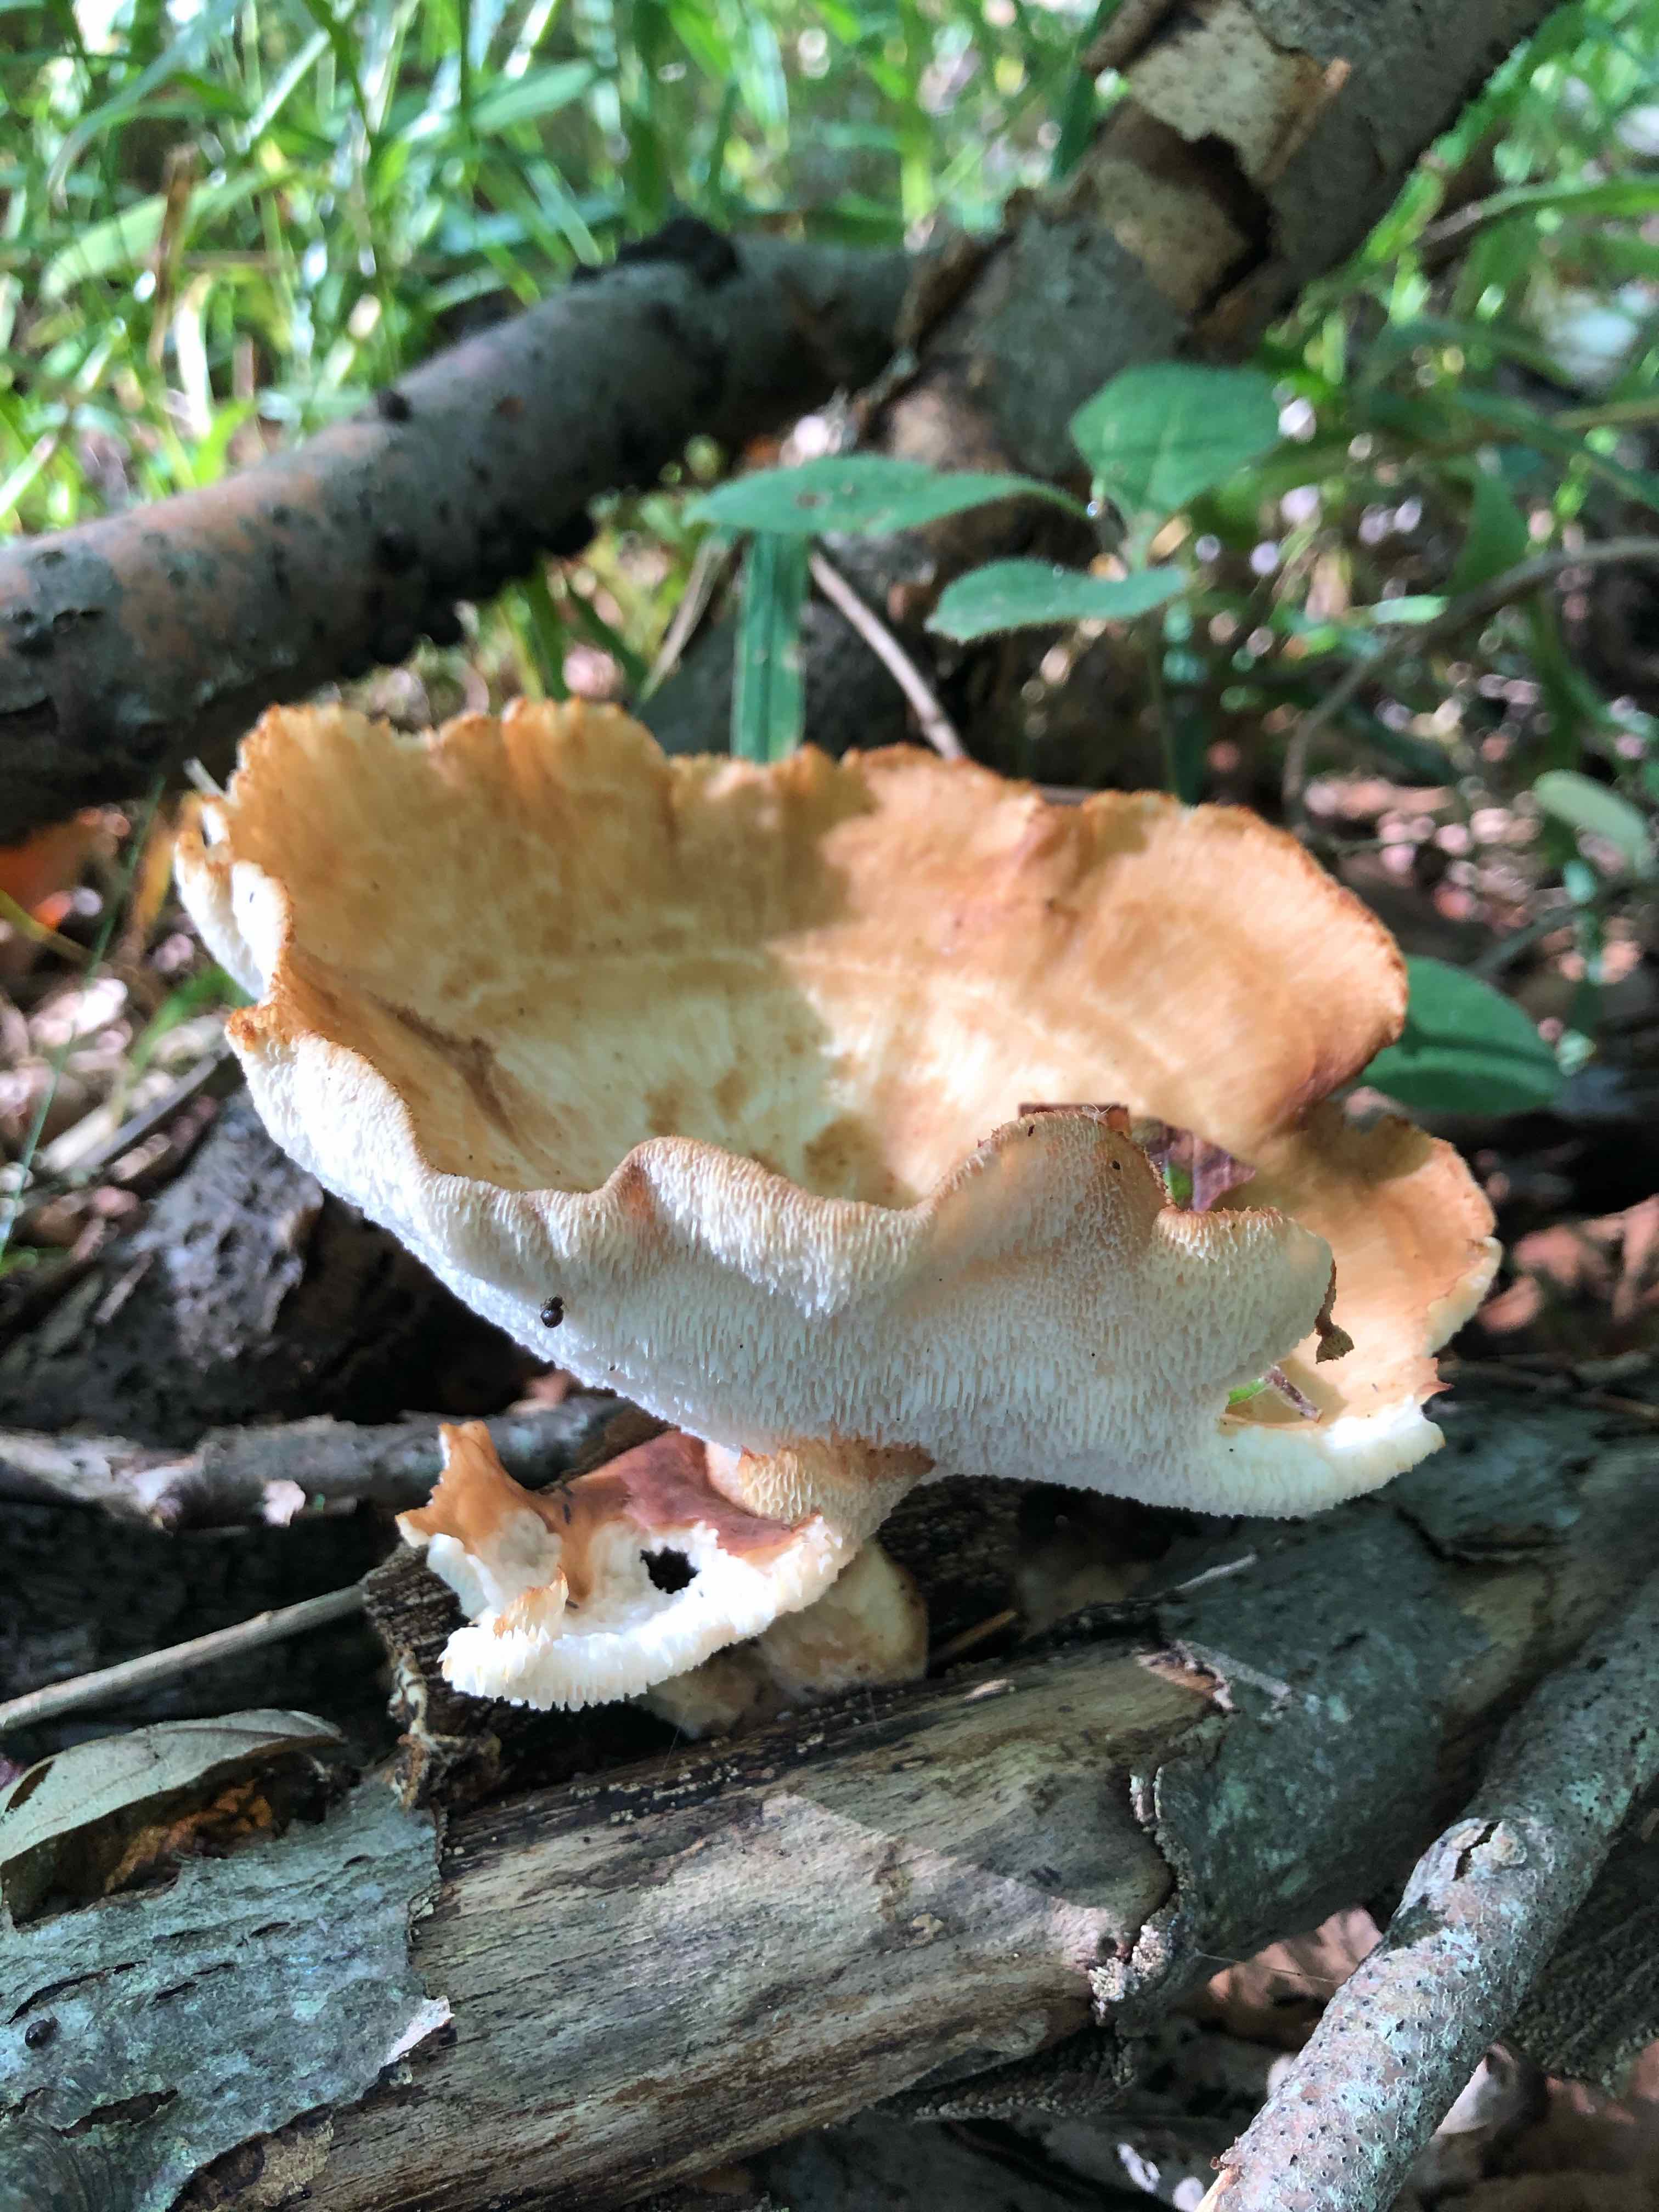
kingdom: Fungi
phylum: Basidiomycota
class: Agaricomycetes
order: Polyporales
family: Polyporaceae
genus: Polyporus
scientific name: Polyporus tuberaster
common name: knoldet stilkporesvamp
